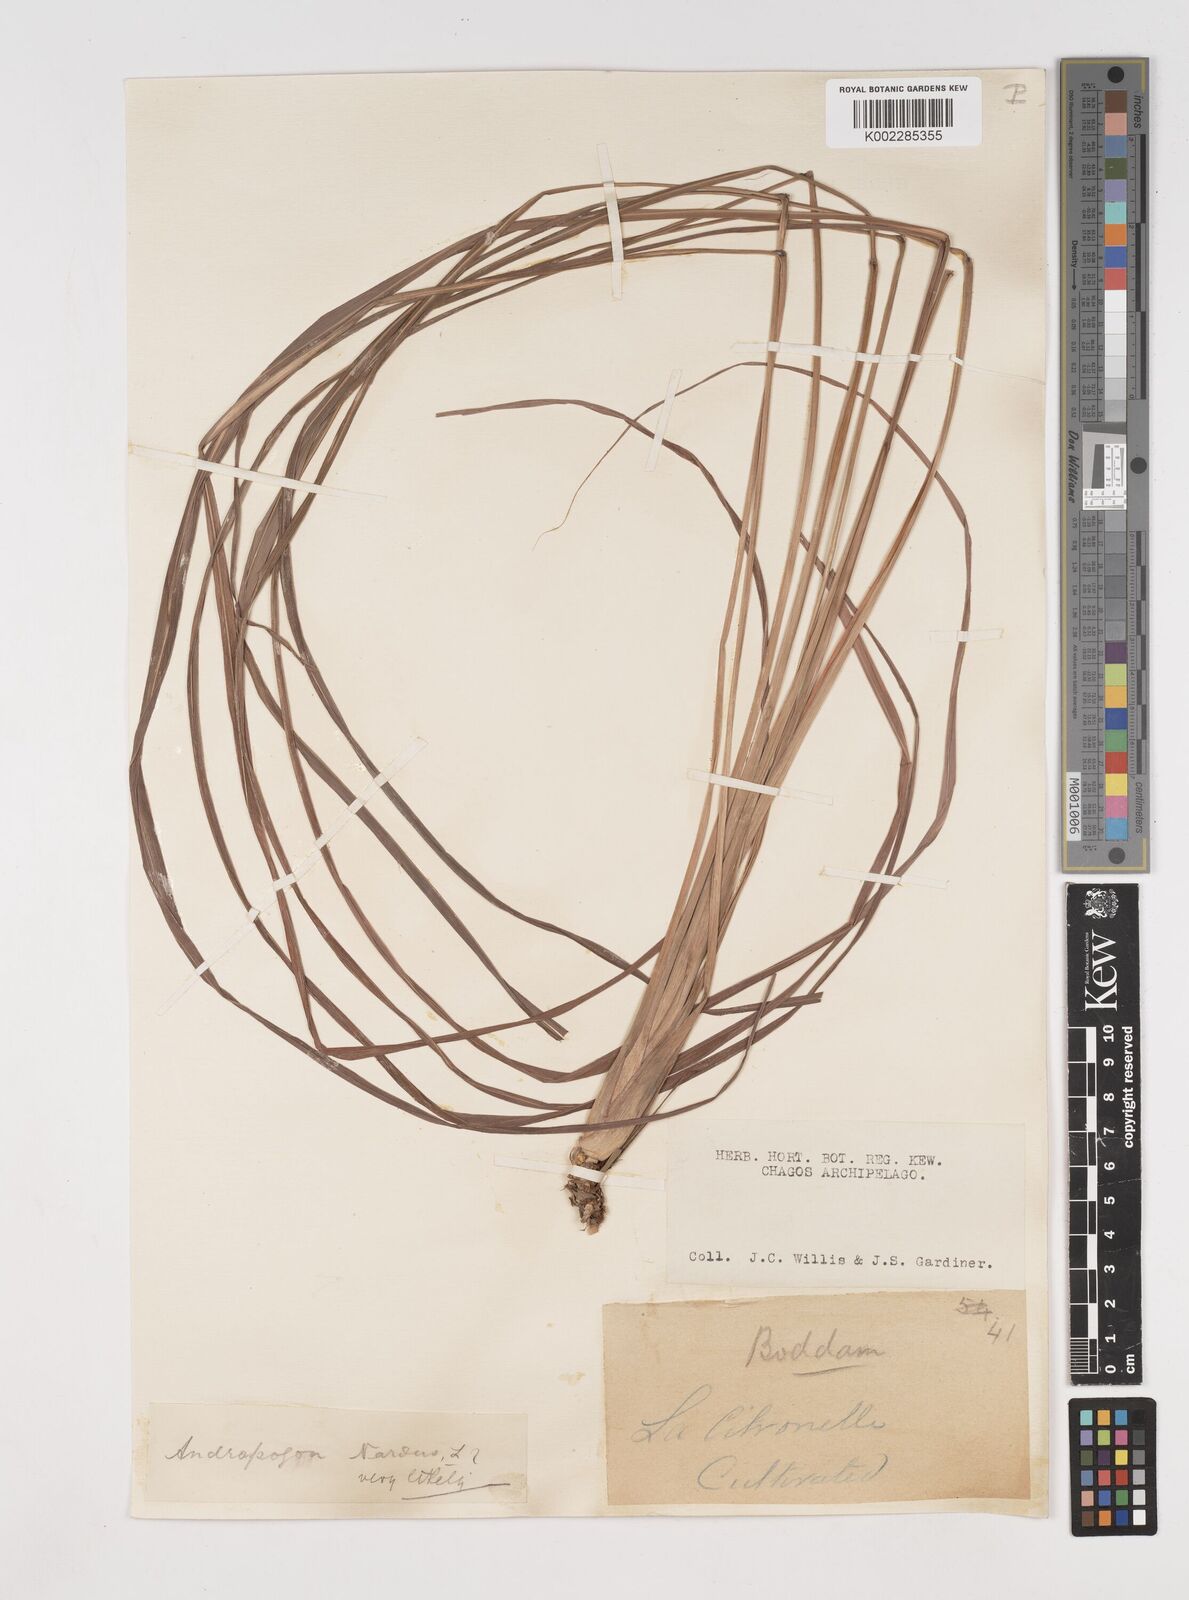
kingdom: Plantae
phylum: Tracheophyta
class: Liliopsida
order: Poales
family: Poaceae
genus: Cymbopogon
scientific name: Cymbopogon nardus
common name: Giant turpentine grass
